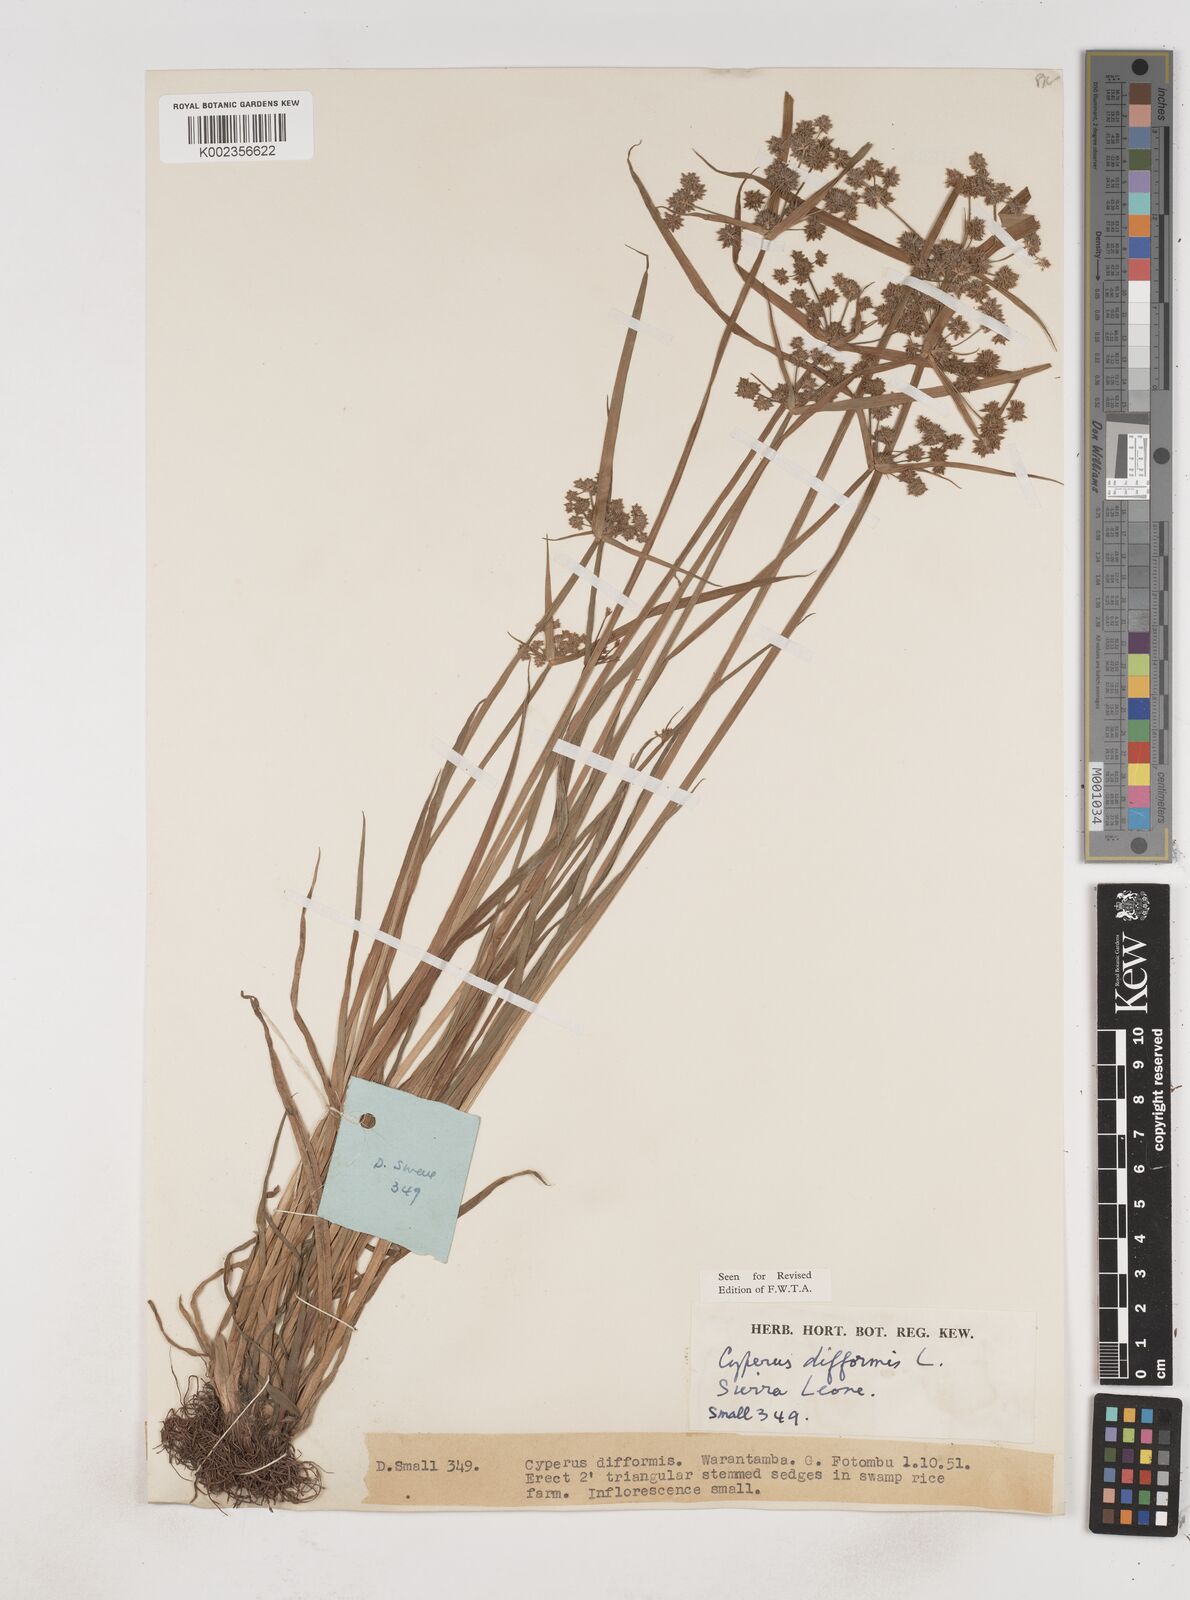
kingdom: Plantae
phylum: Tracheophyta
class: Liliopsida
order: Poales
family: Cyperaceae
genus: Cyperus
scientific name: Cyperus difformis
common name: Variable flatsedge
